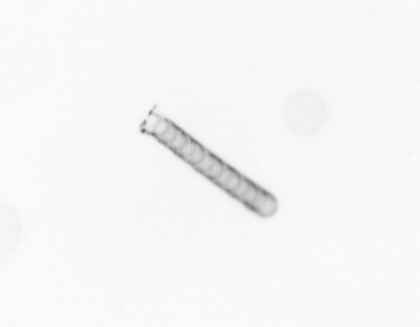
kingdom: Chromista
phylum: Ochrophyta
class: Bacillariophyceae
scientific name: Bacillariophyceae
